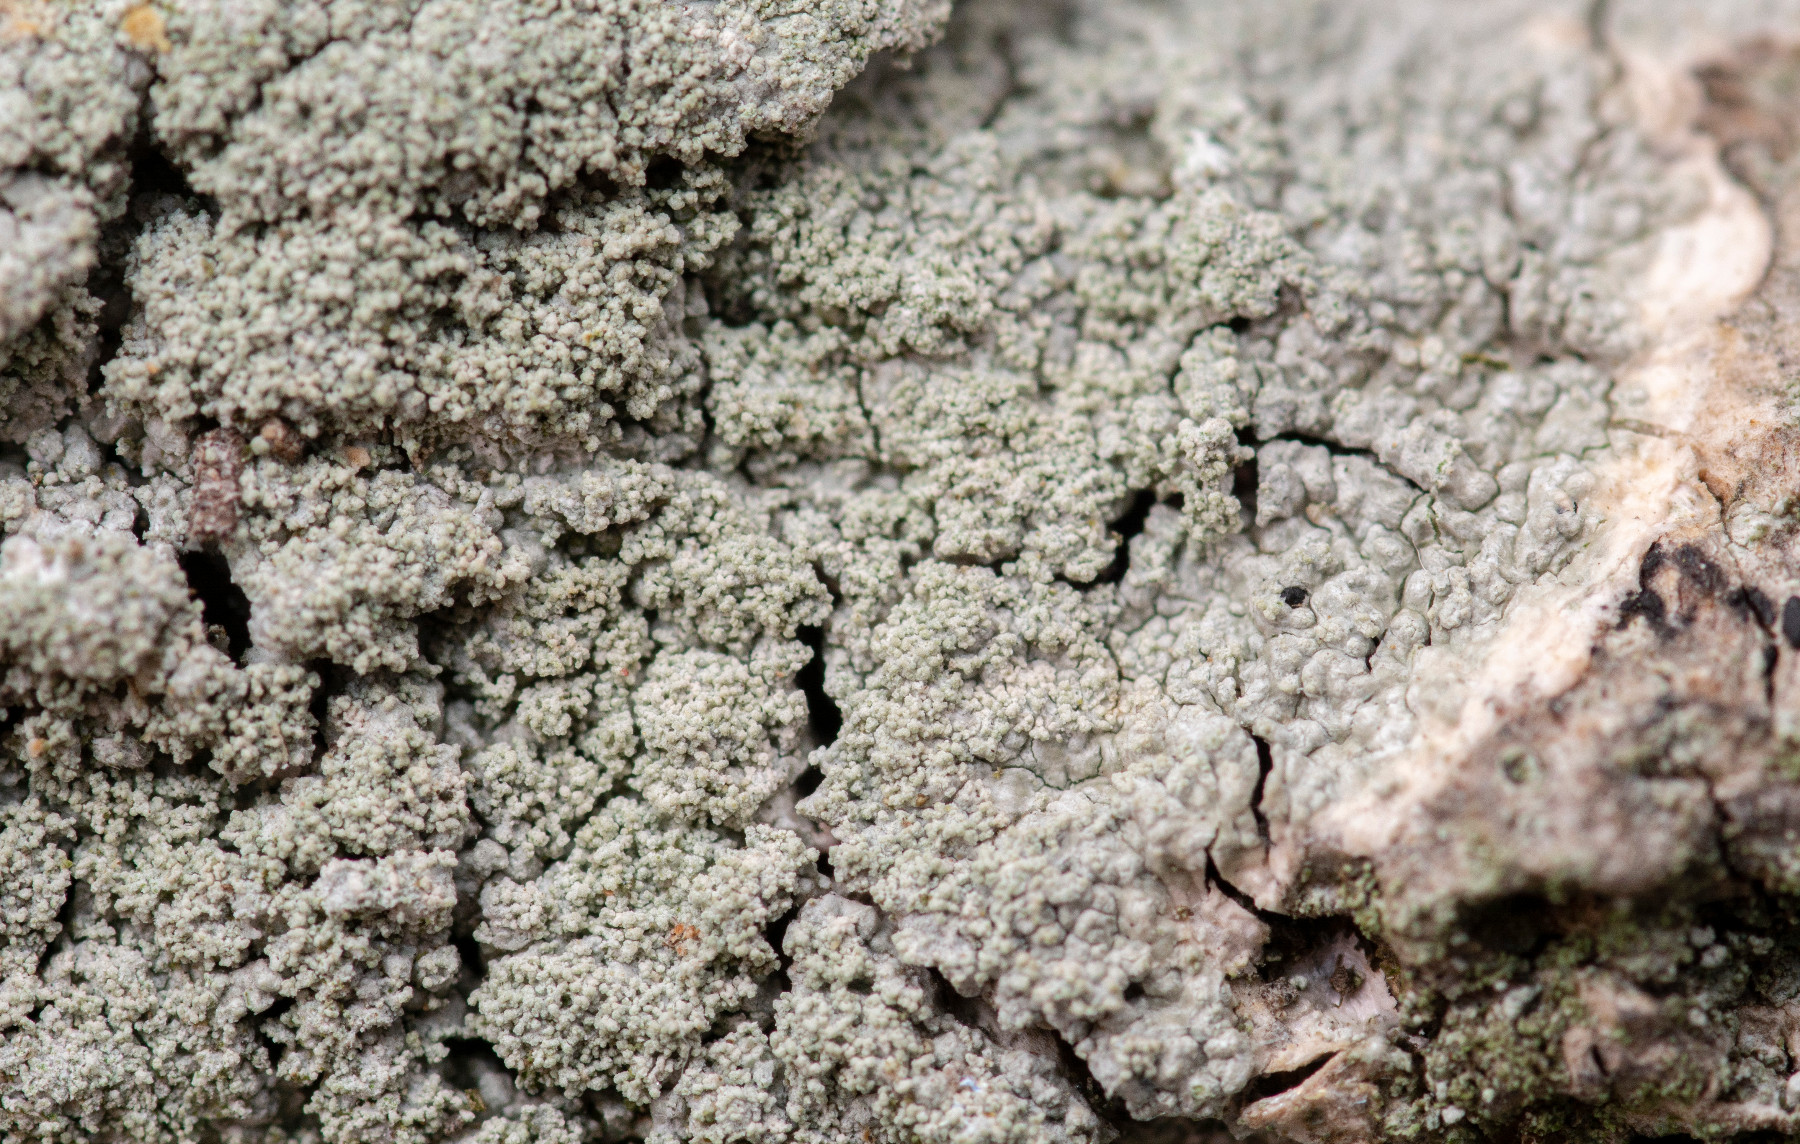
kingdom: Fungi
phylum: Ascomycota
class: Lecanoromycetes
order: Pertusariales
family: Ochrolechiaceae
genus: Ochrolechia
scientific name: Ochrolechia subviridis
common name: vorte-blegskivelav
